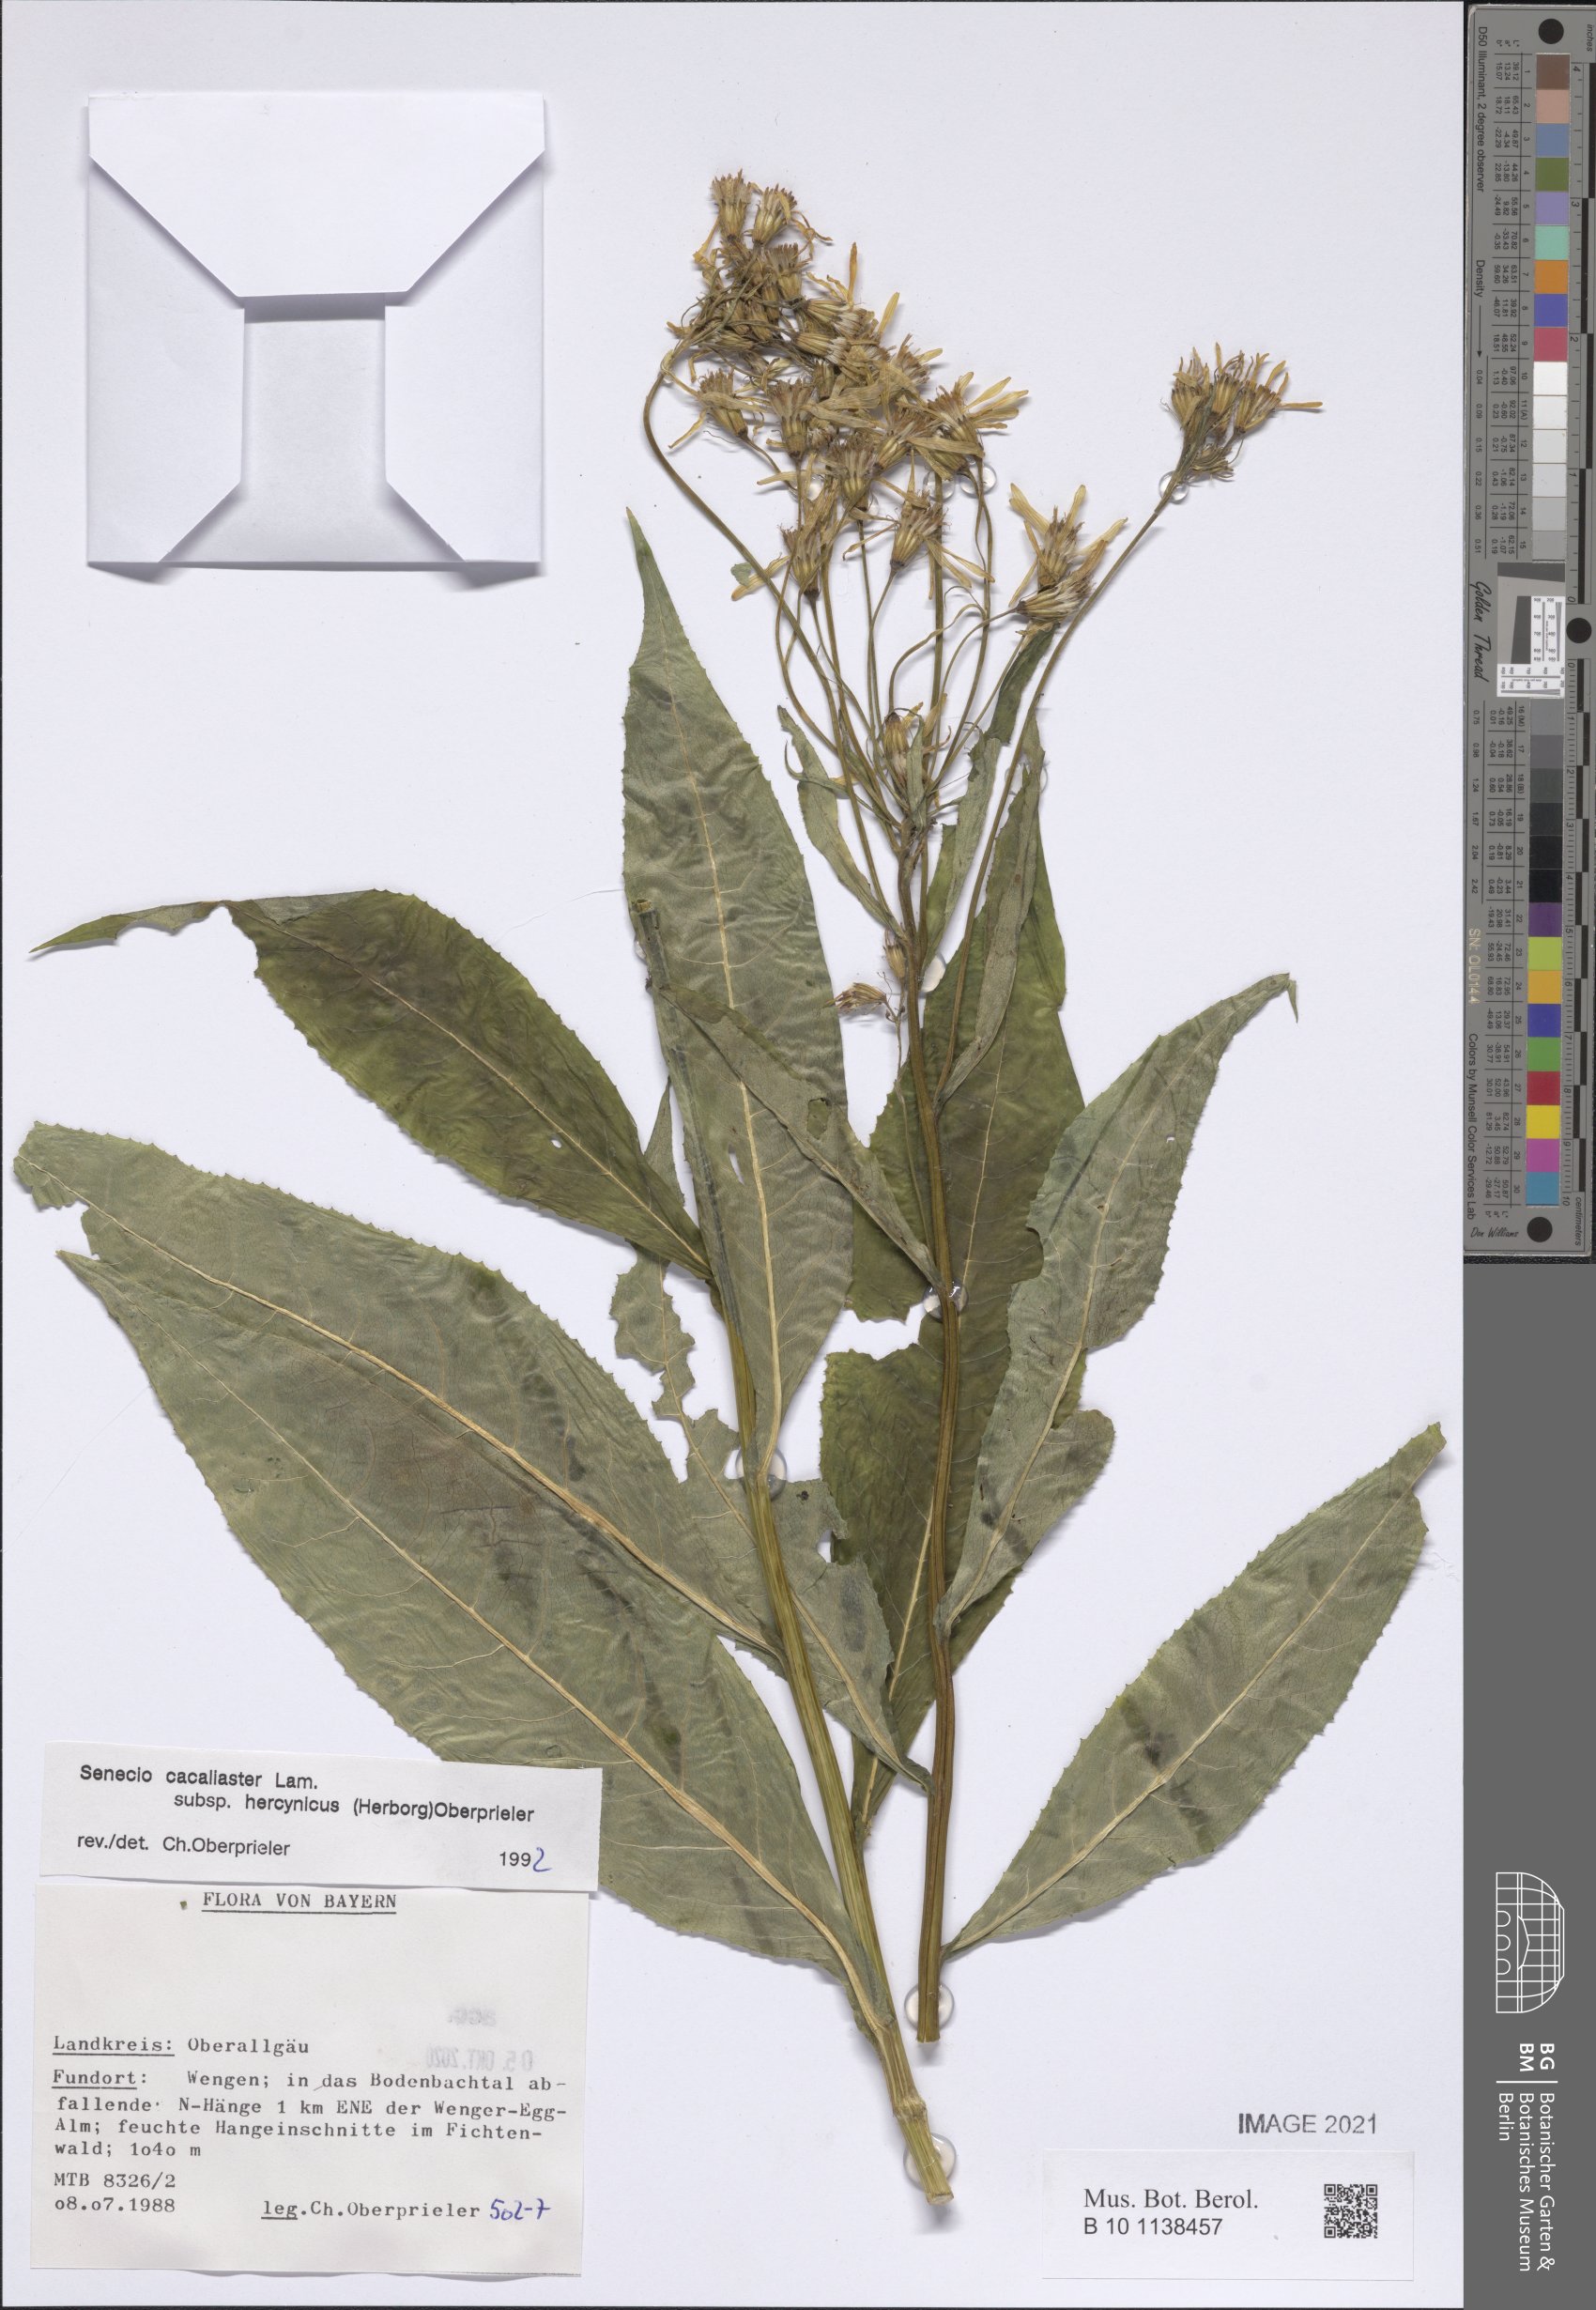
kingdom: Plantae
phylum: Tracheophyta
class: Magnoliopsida
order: Asterales
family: Asteraceae
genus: Senecio
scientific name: Senecio hercynicus
